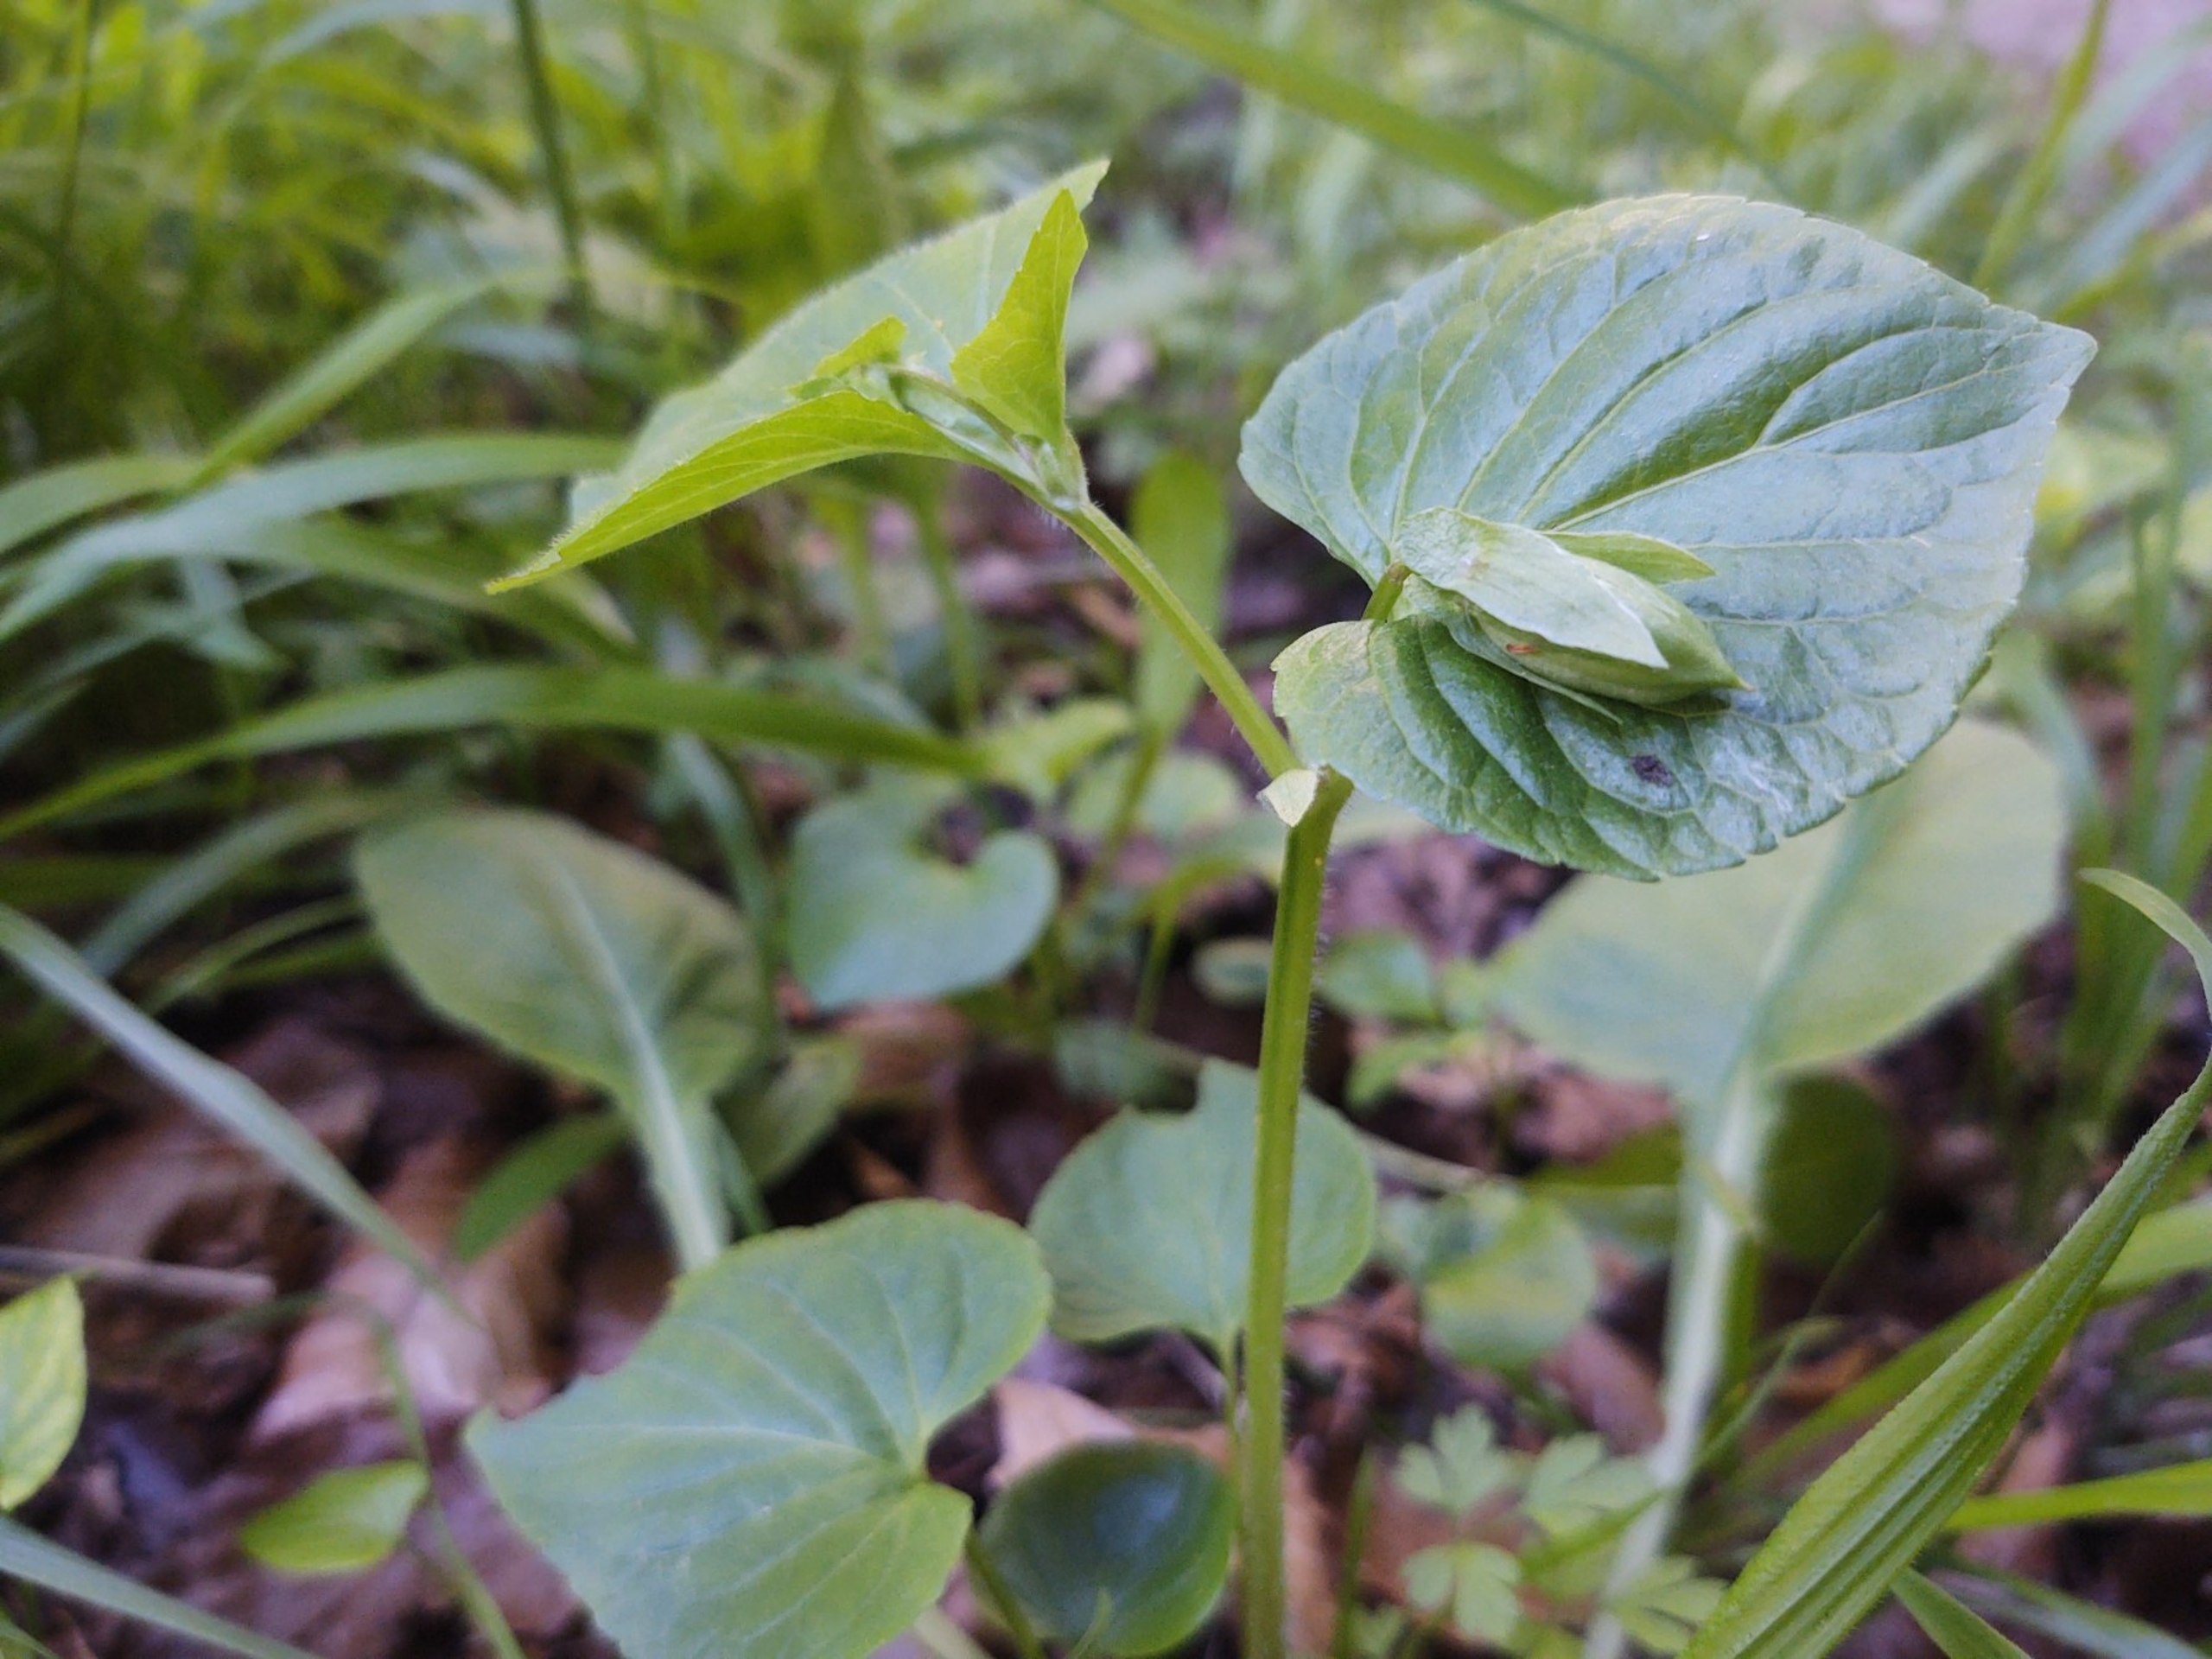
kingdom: Plantae
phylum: Tracheophyta
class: Magnoliopsida
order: Malpighiales
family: Violaceae
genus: Viola
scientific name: Viola mirabilis
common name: Forskelligblomstret viol
